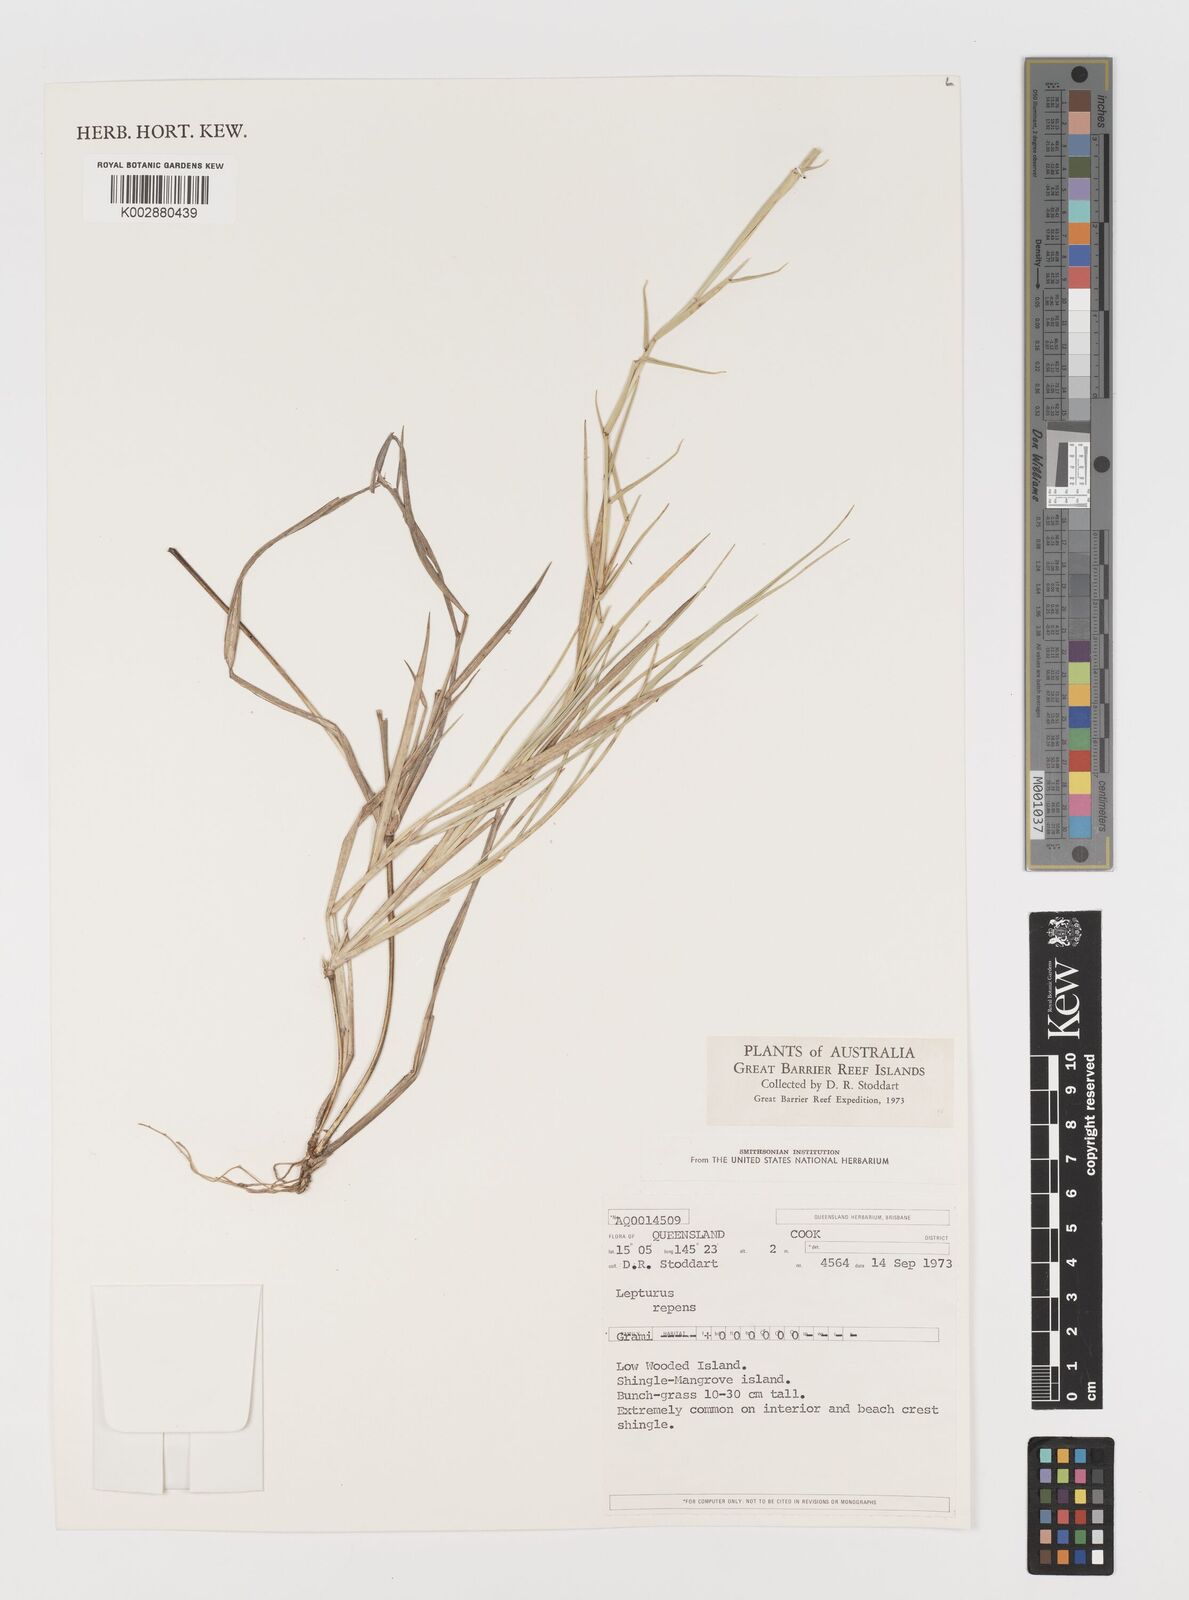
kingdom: Plantae
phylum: Tracheophyta
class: Liliopsida
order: Poales
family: Poaceae
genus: Lepturus
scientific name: Lepturus repens
